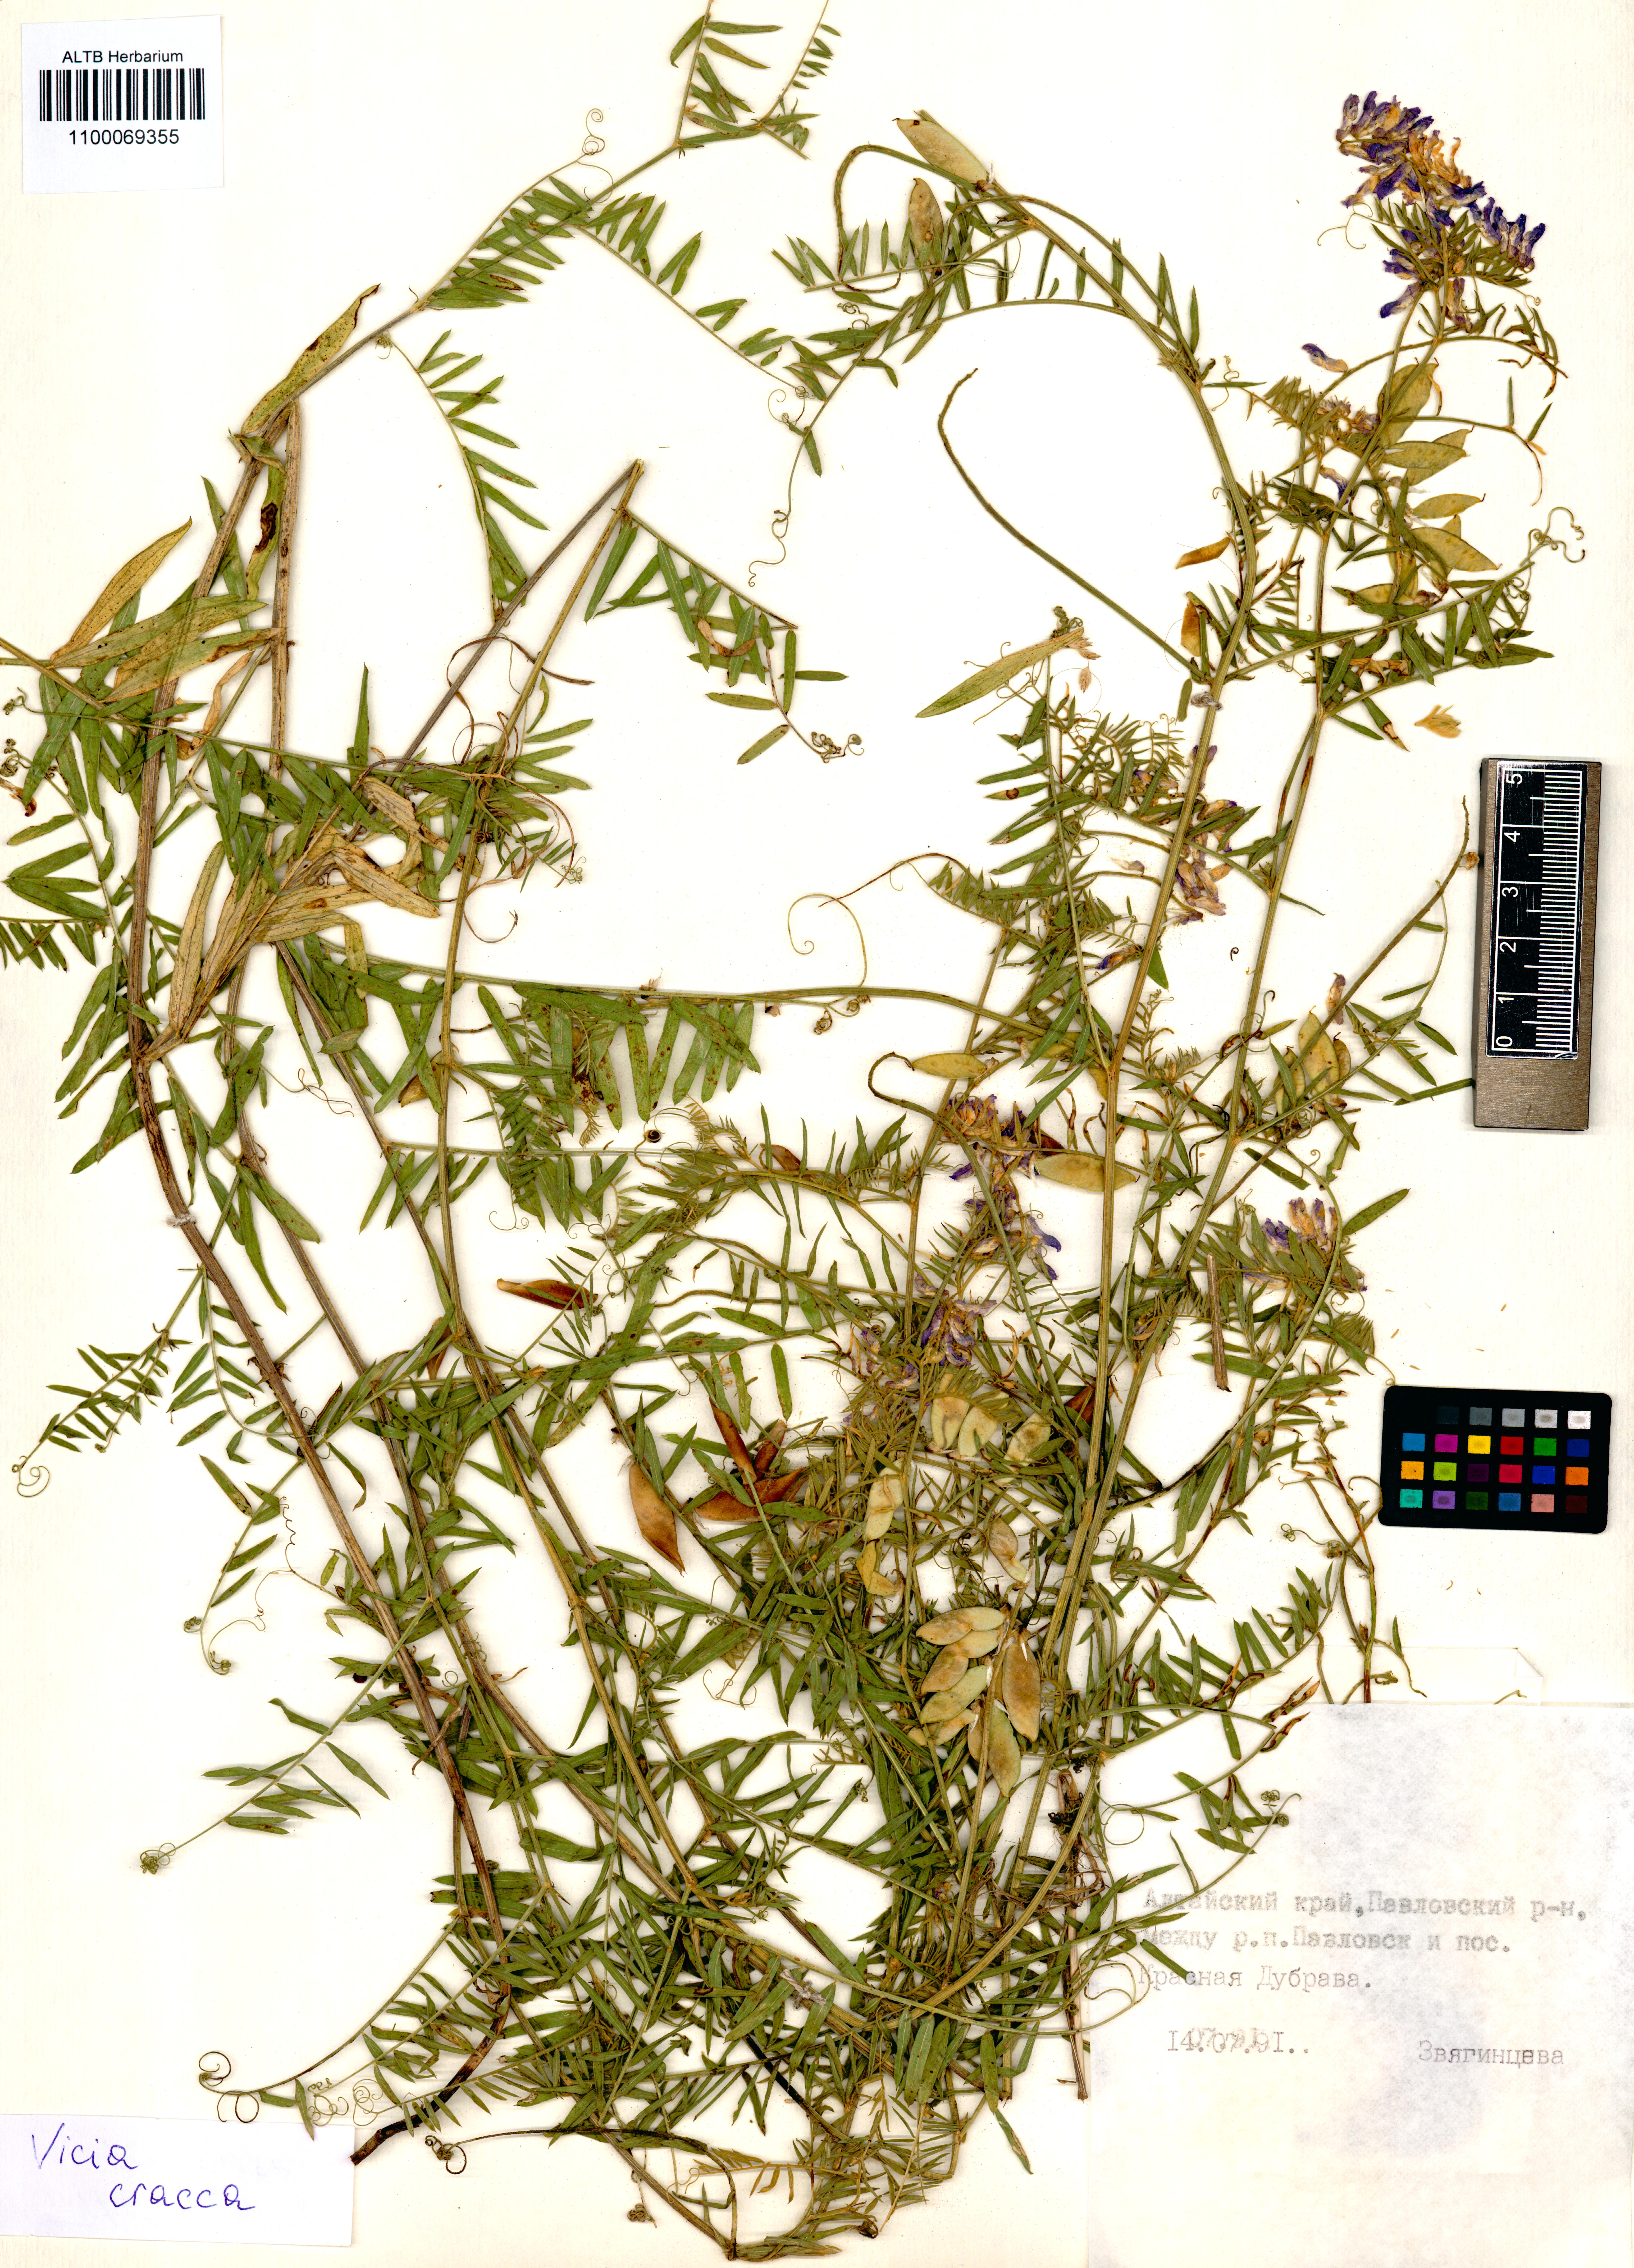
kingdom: Plantae
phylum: Tracheophyta
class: Magnoliopsida
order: Fabales
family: Fabaceae
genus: Vicia
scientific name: Vicia cracca
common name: Bird vetch
